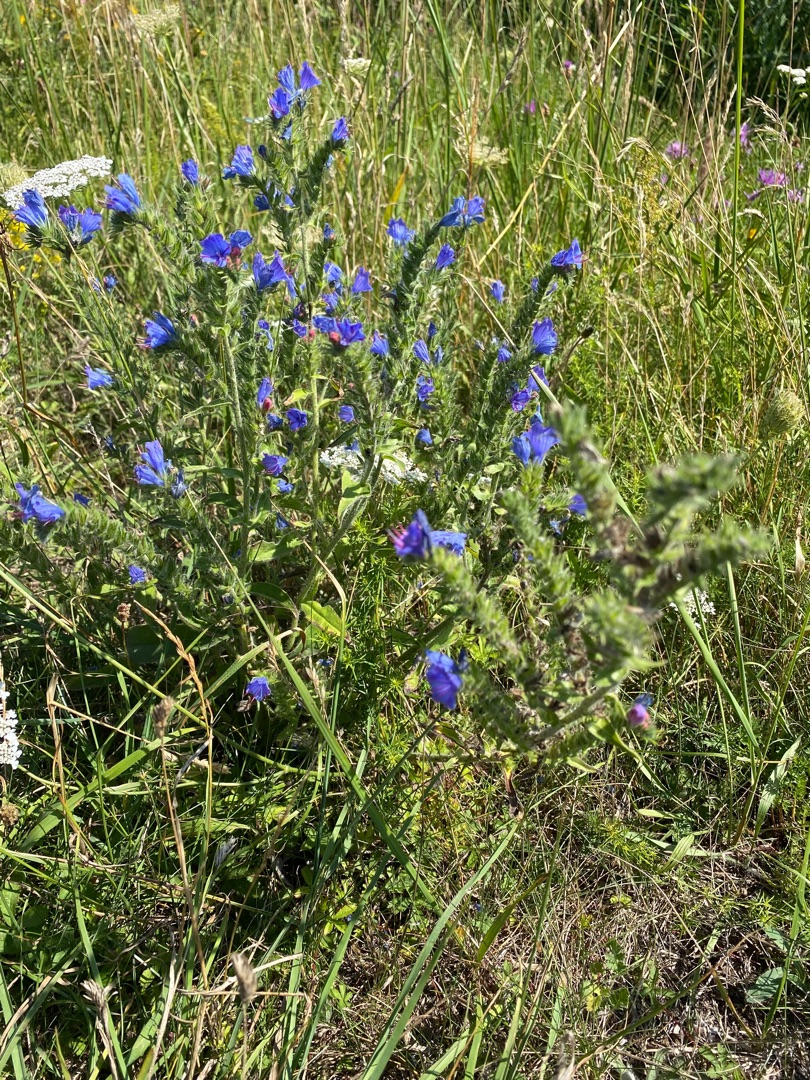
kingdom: Plantae
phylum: Tracheophyta
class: Magnoliopsida
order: Boraginales
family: Boraginaceae
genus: Echium
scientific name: Echium vulgare
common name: Slangehoved
